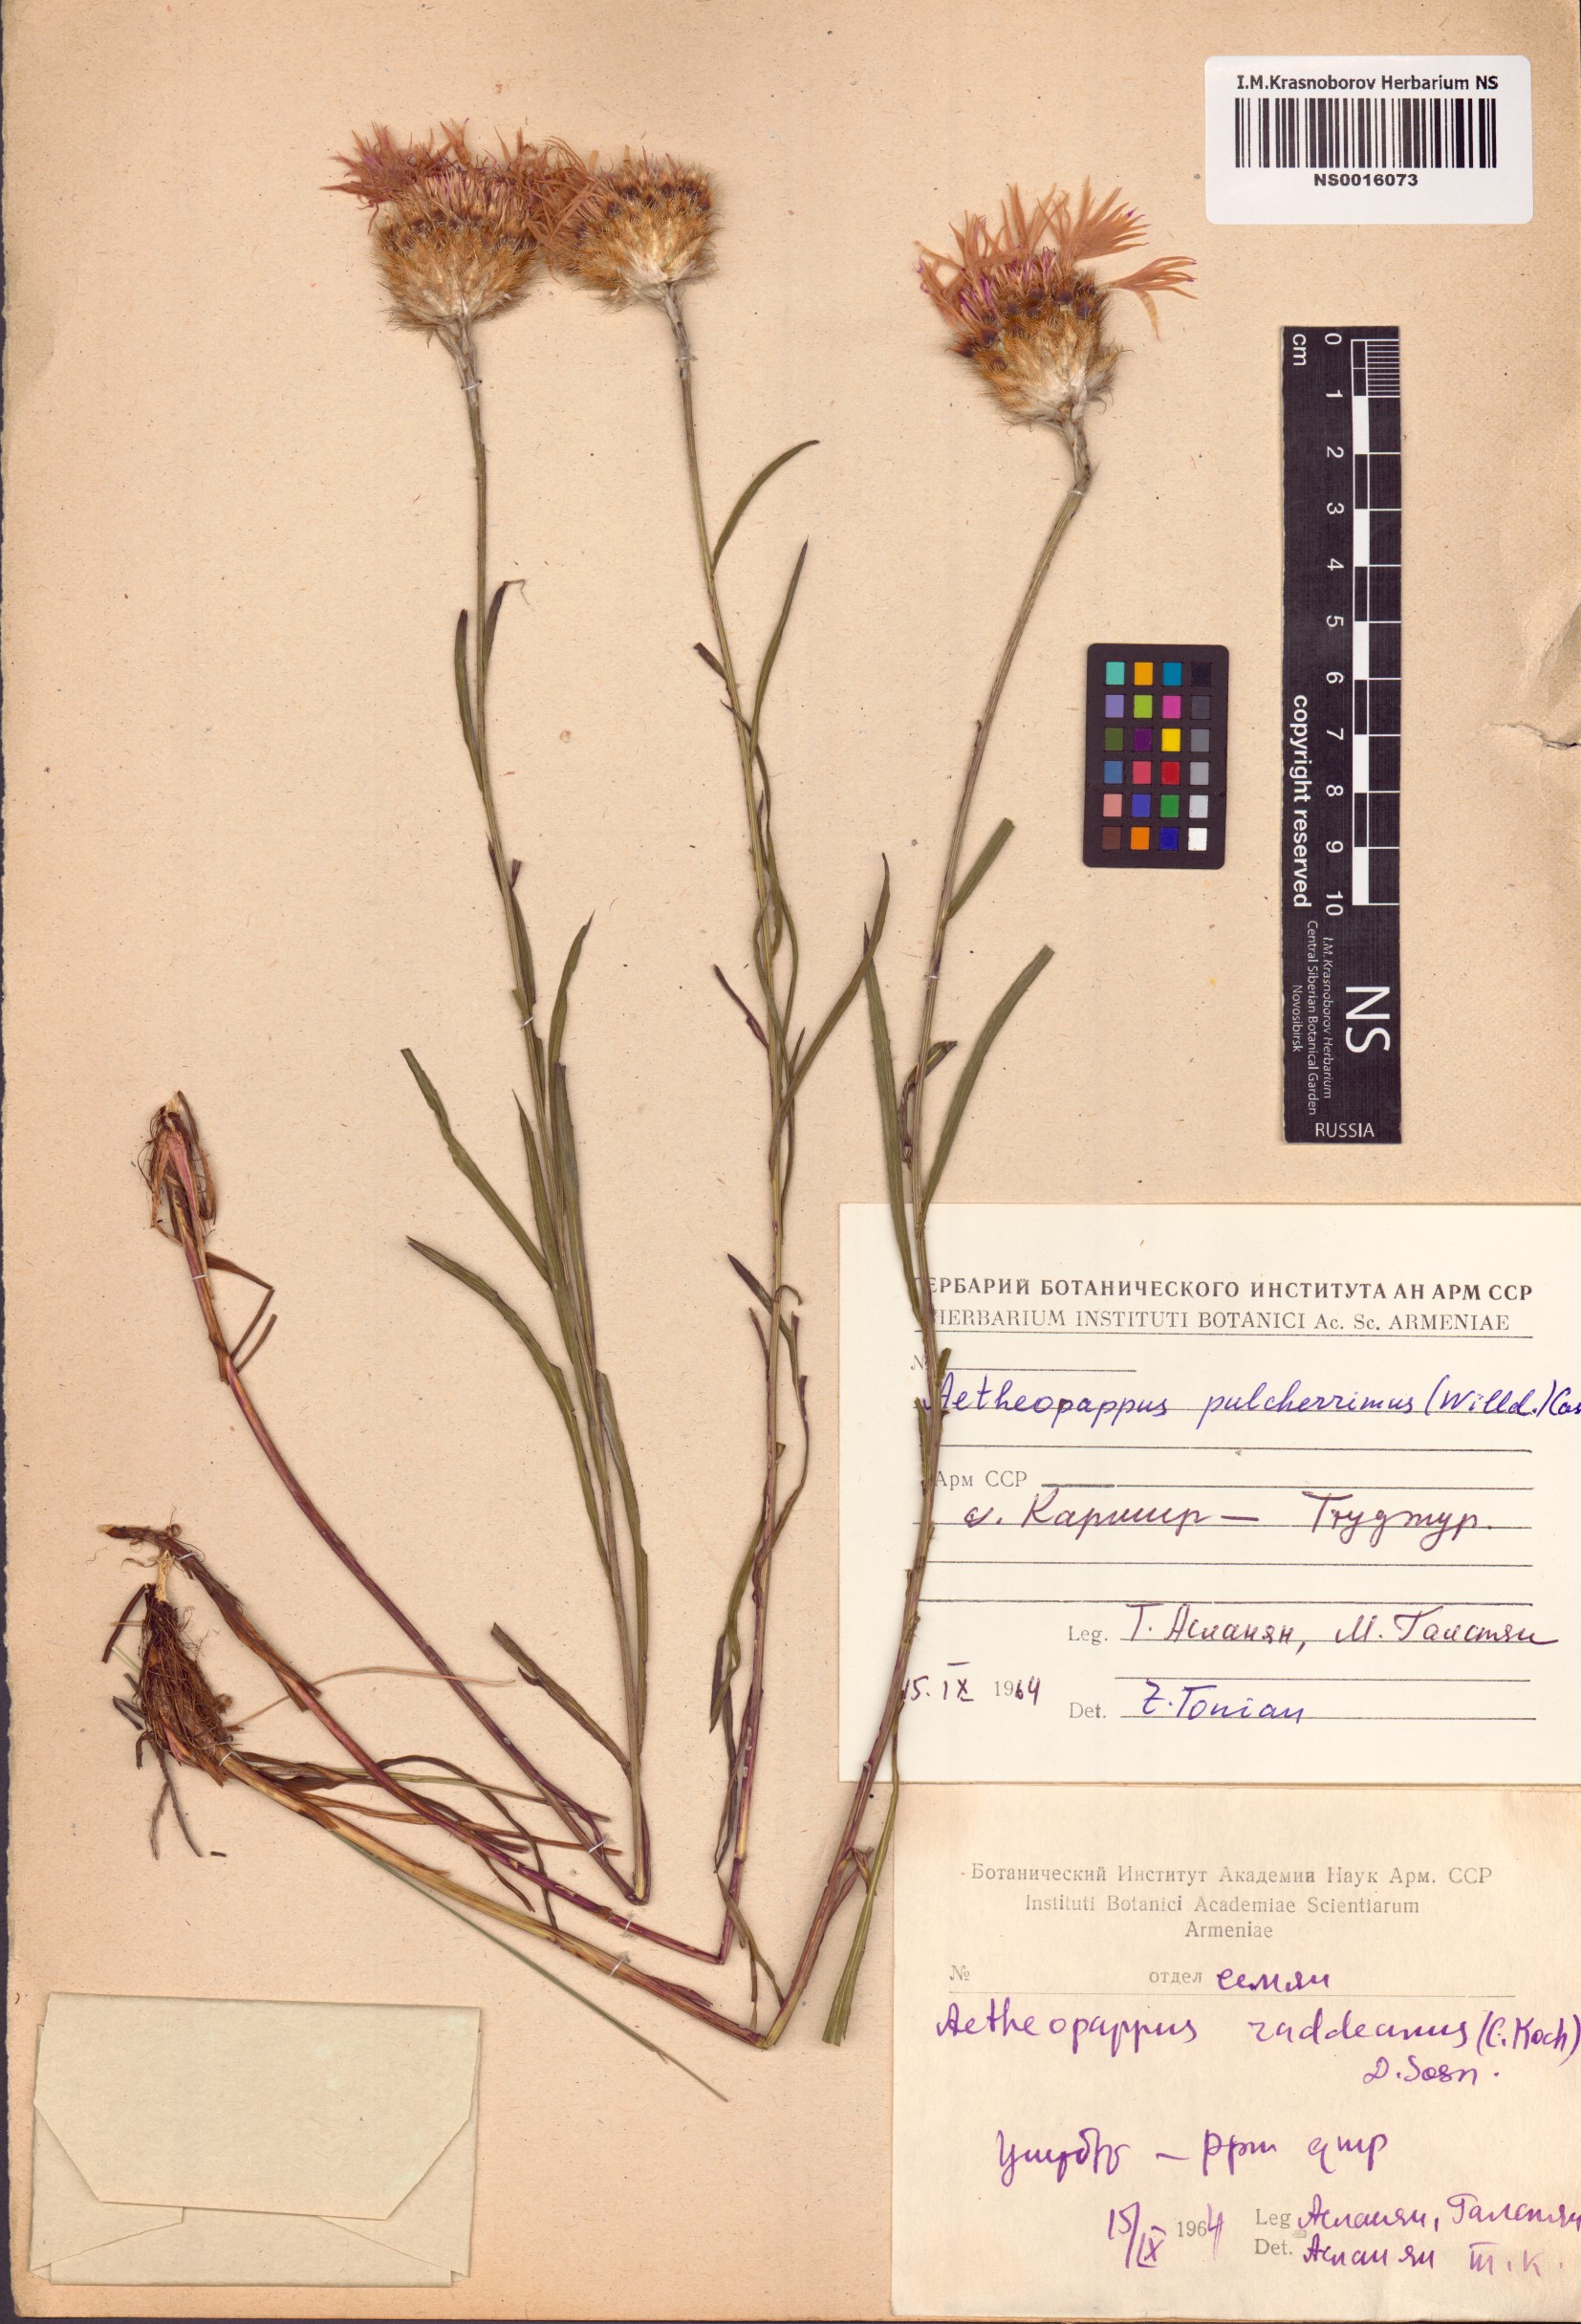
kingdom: Plantae
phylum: Tracheophyta
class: Magnoliopsida
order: Asterales
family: Asteraceae
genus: Psephellus
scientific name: Psephellus pulcherrimus
